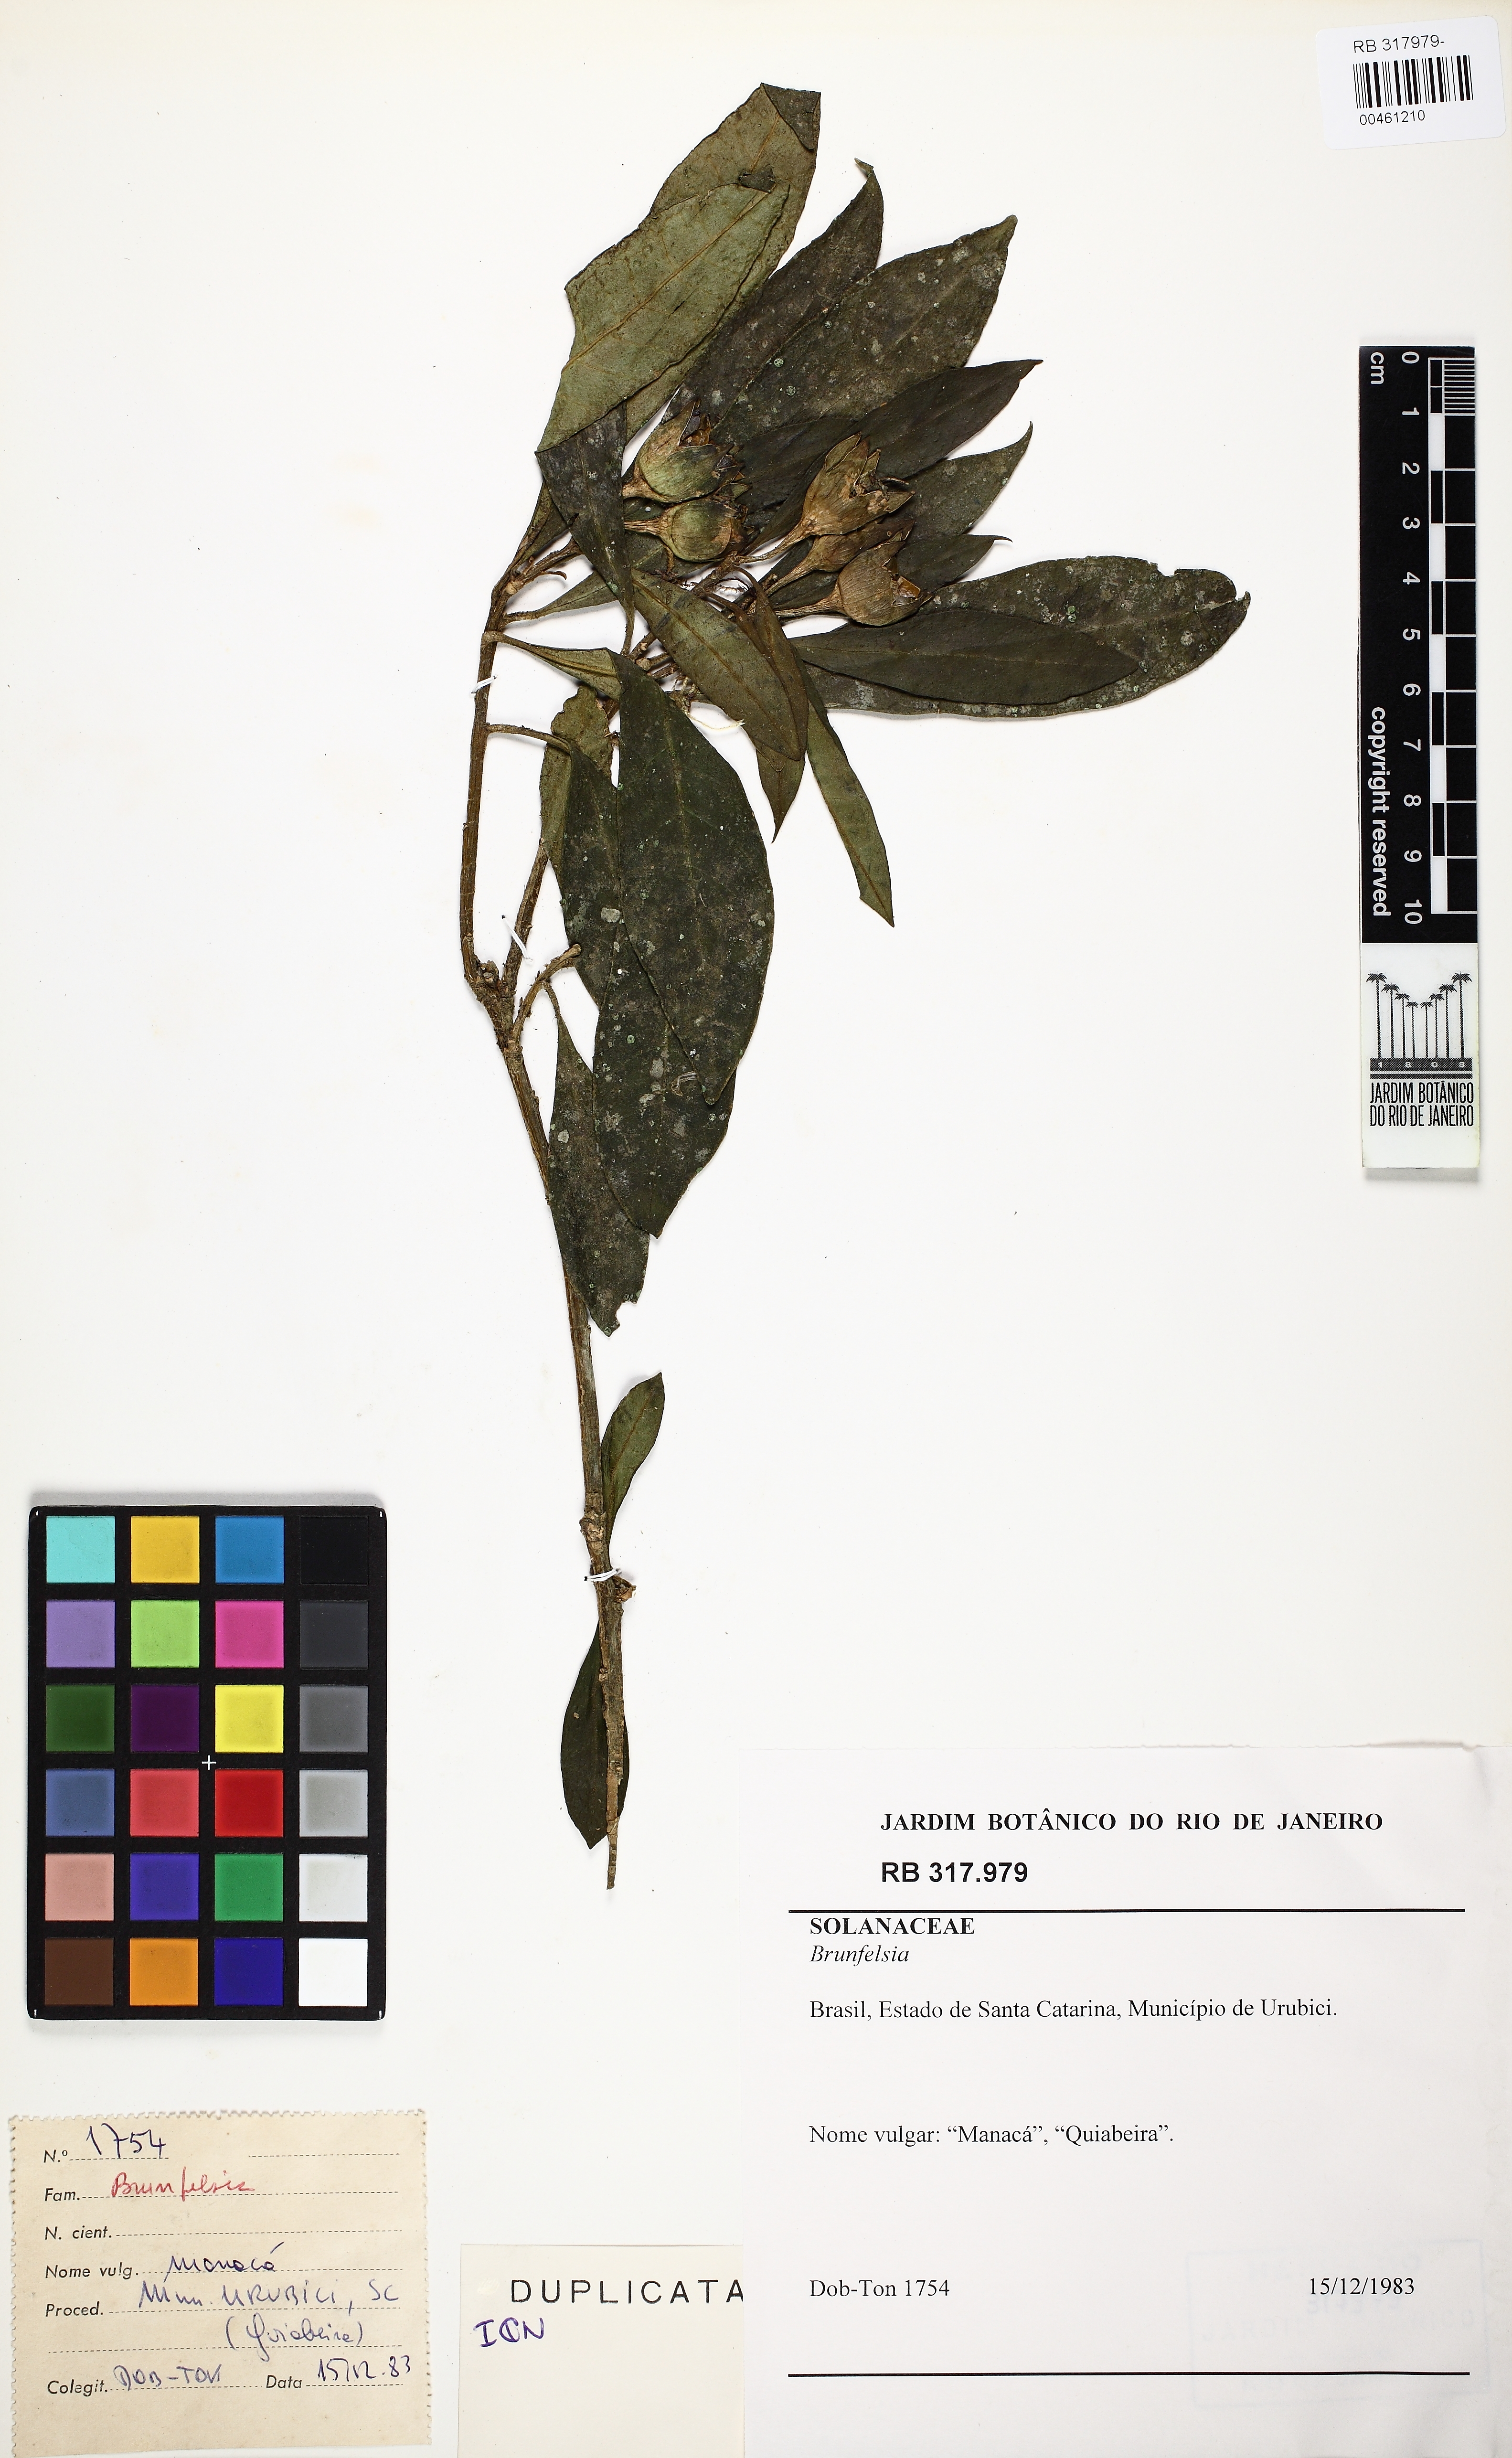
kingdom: Plantae
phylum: Tracheophyta
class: Magnoliopsida
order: Solanales
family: Solanaceae
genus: Brunfelsia
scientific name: Brunfelsia
